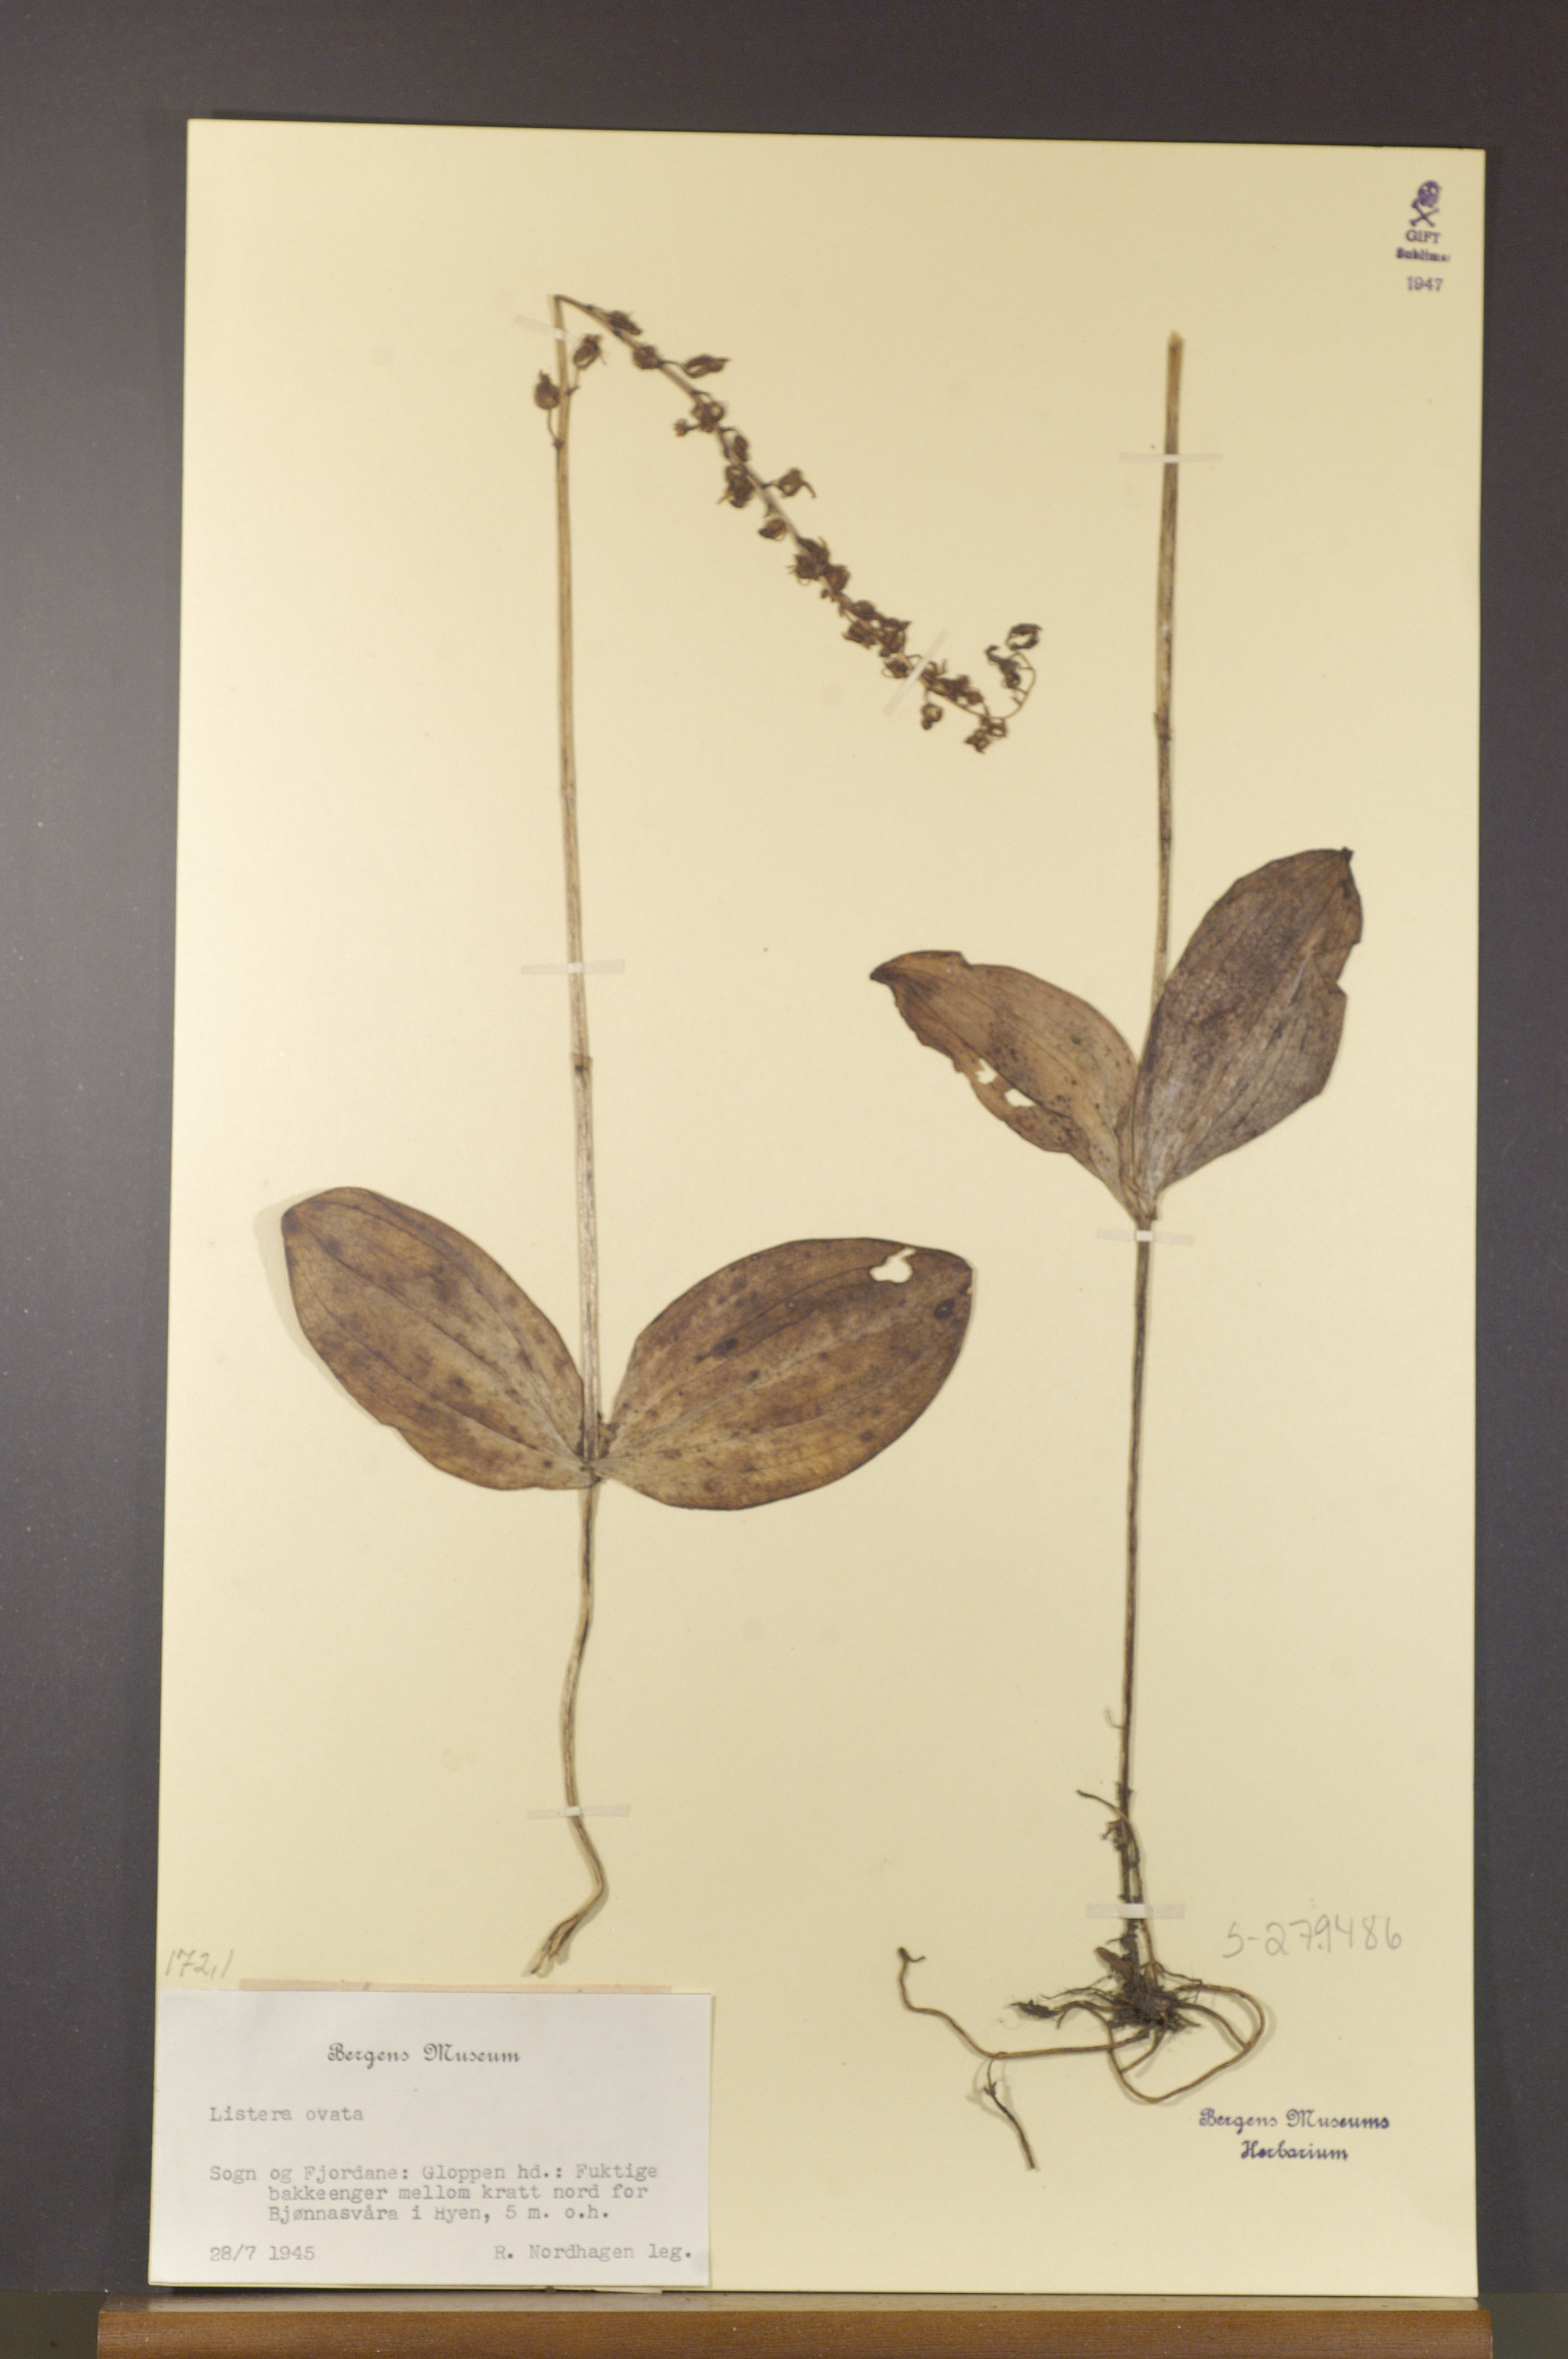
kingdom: Plantae
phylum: Tracheophyta
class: Liliopsida
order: Asparagales
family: Orchidaceae
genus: Neottia
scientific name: Neottia ovata
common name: Common twayblade
